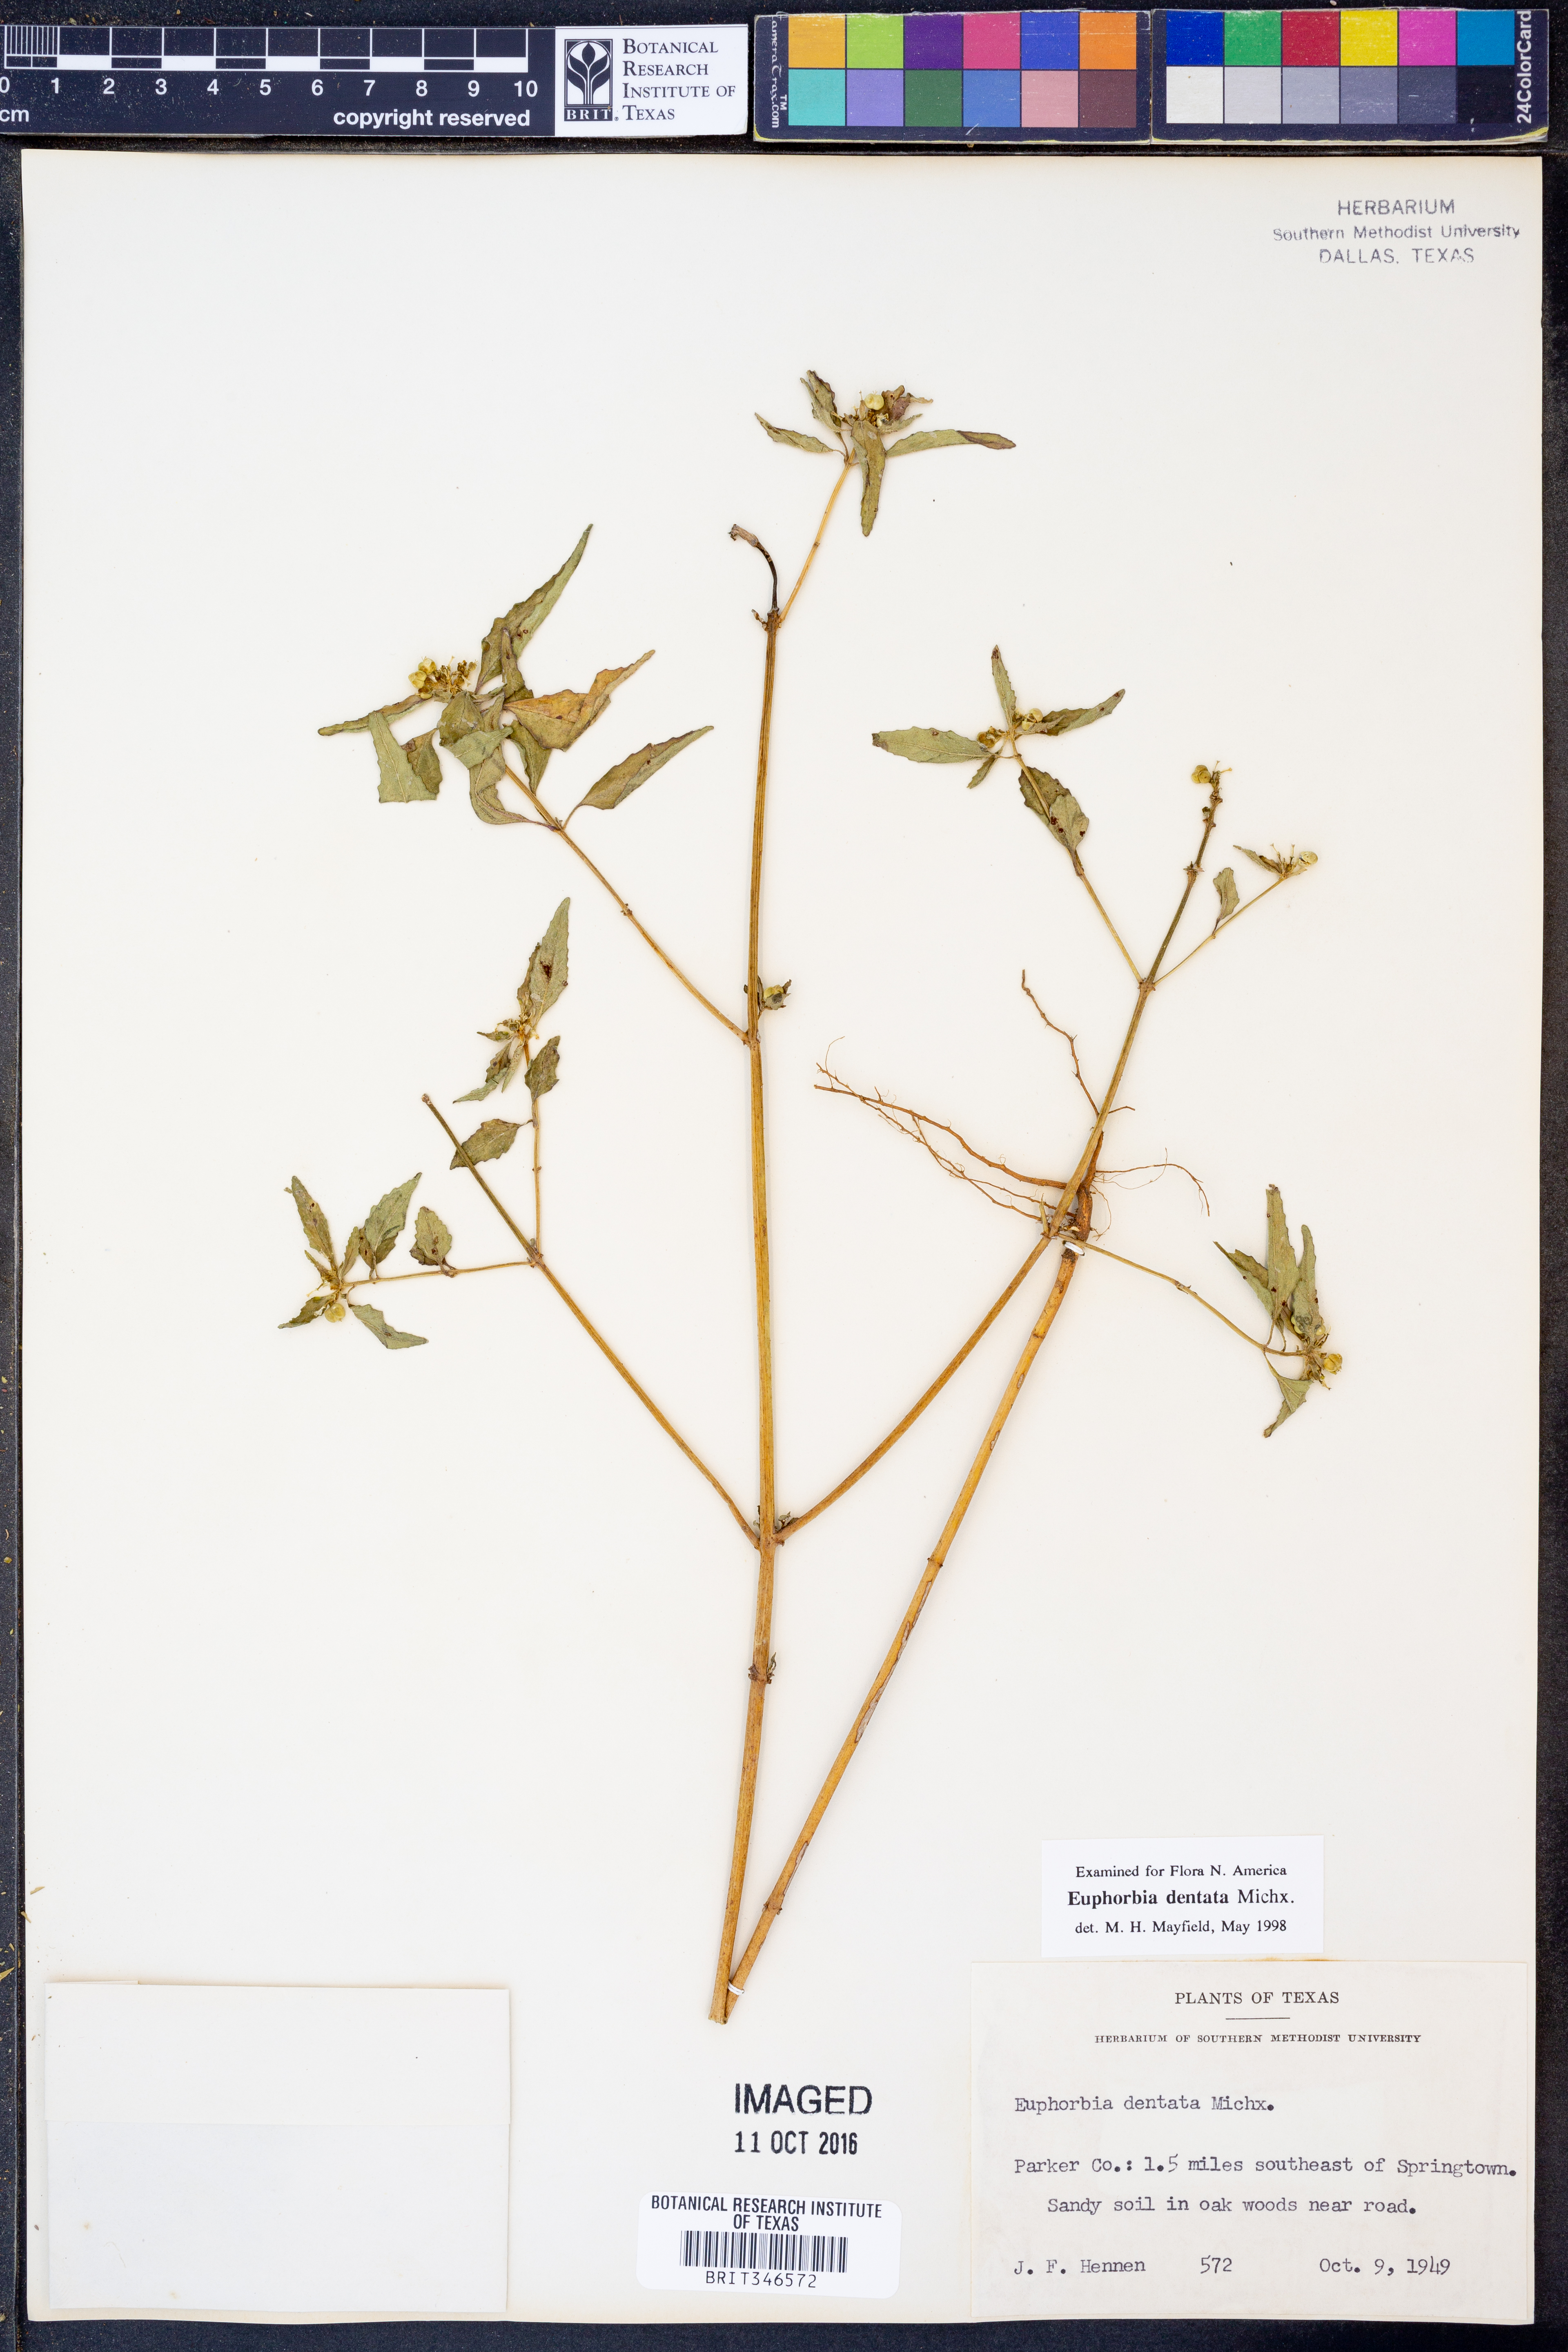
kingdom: Plantae
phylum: Tracheophyta
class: Magnoliopsida
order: Malpighiales
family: Euphorbiaceae
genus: Euphorbia
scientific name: Euphorbia dentata
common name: Dentate spurge
